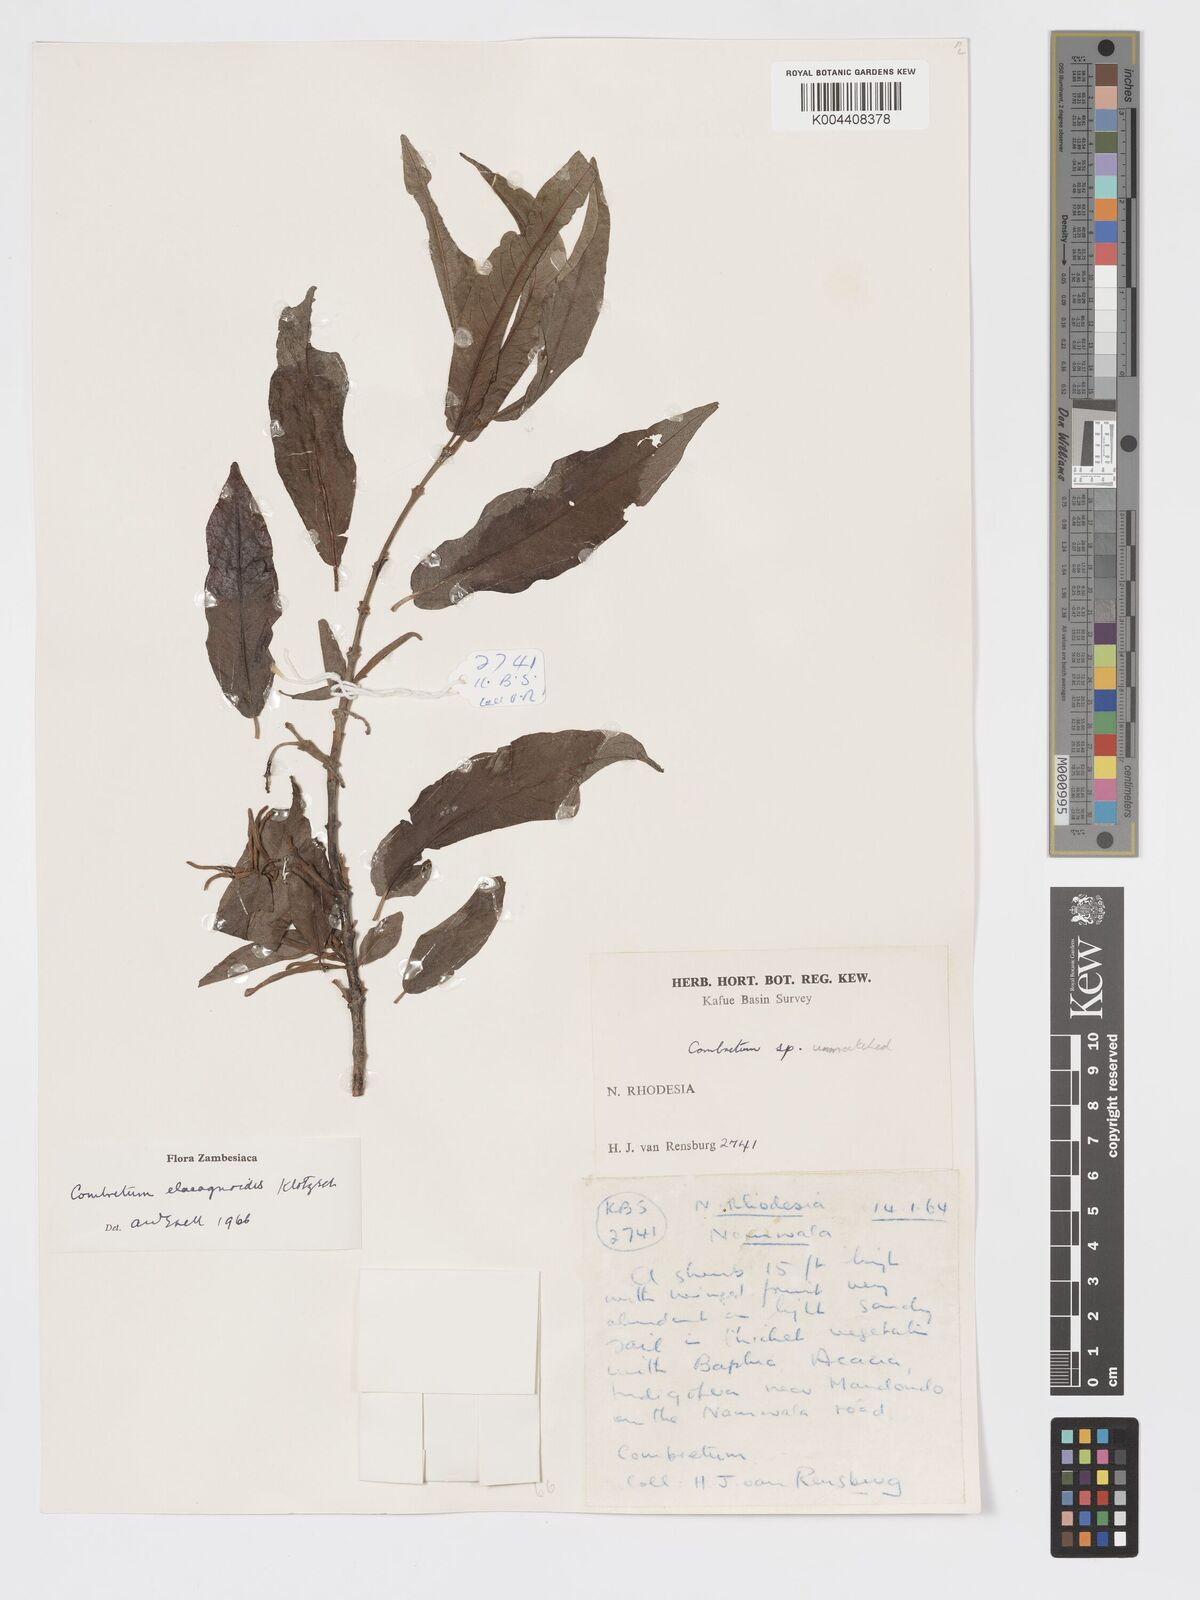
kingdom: Plantae
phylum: Tracheophyta
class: Magnoliopsida
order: Myrtales
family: Combretaceae
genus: Combretum
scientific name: Combretum elaeagnoides
